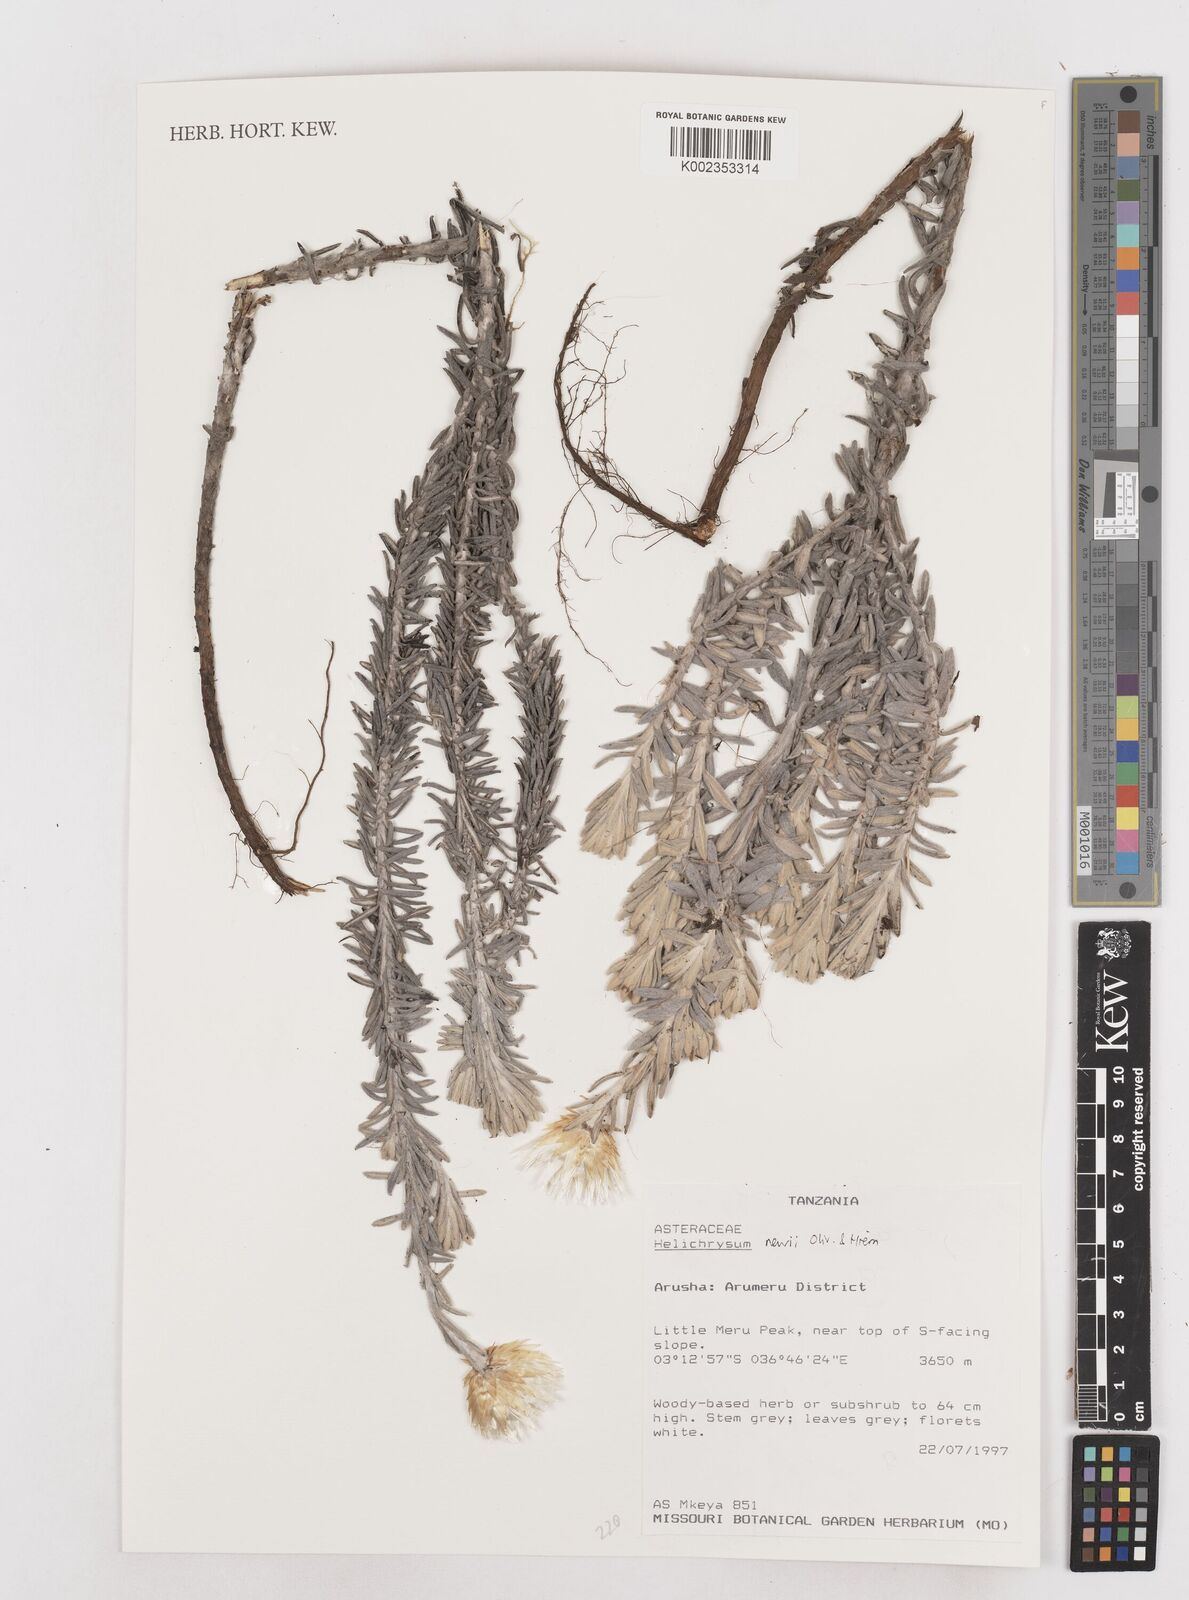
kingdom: Plantae
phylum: Tracheophyta
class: Magnoliopsida
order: Asterales
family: Asteraceae
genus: Helichrysum
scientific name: Helichrysum newii
